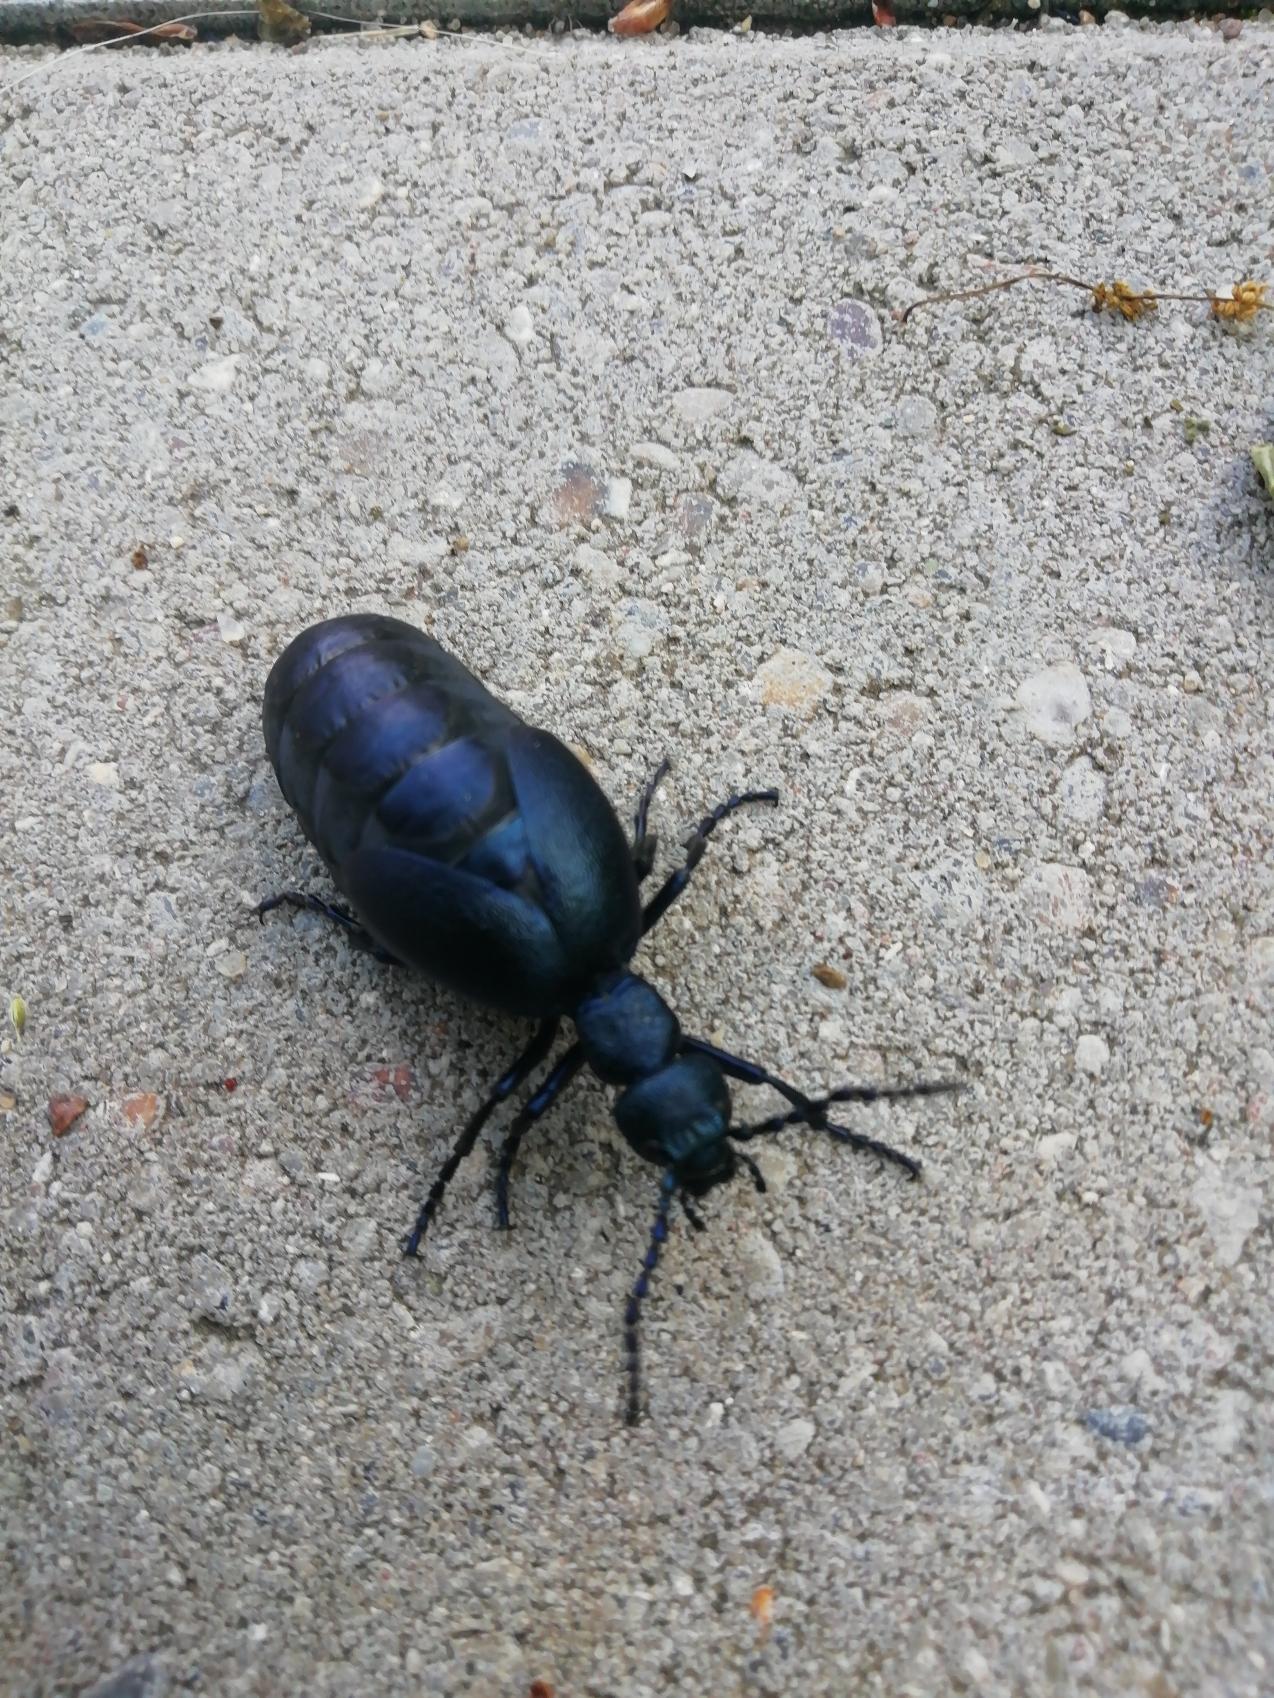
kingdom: Animalia
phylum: Arthropoda
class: Insecta
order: Coleoptera
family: Meloidae
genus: Meloe
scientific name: Meloe violaceus
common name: Blå oliebille
